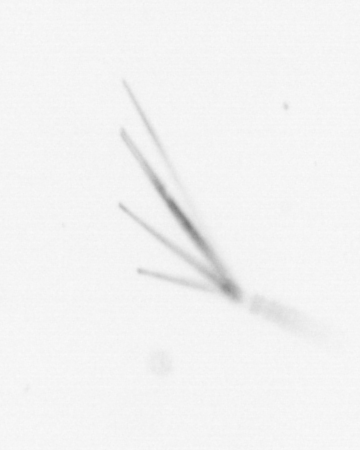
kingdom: Chromista
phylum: Ochrophyta
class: Bacillariophyceae
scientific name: Bacillariophyceae
